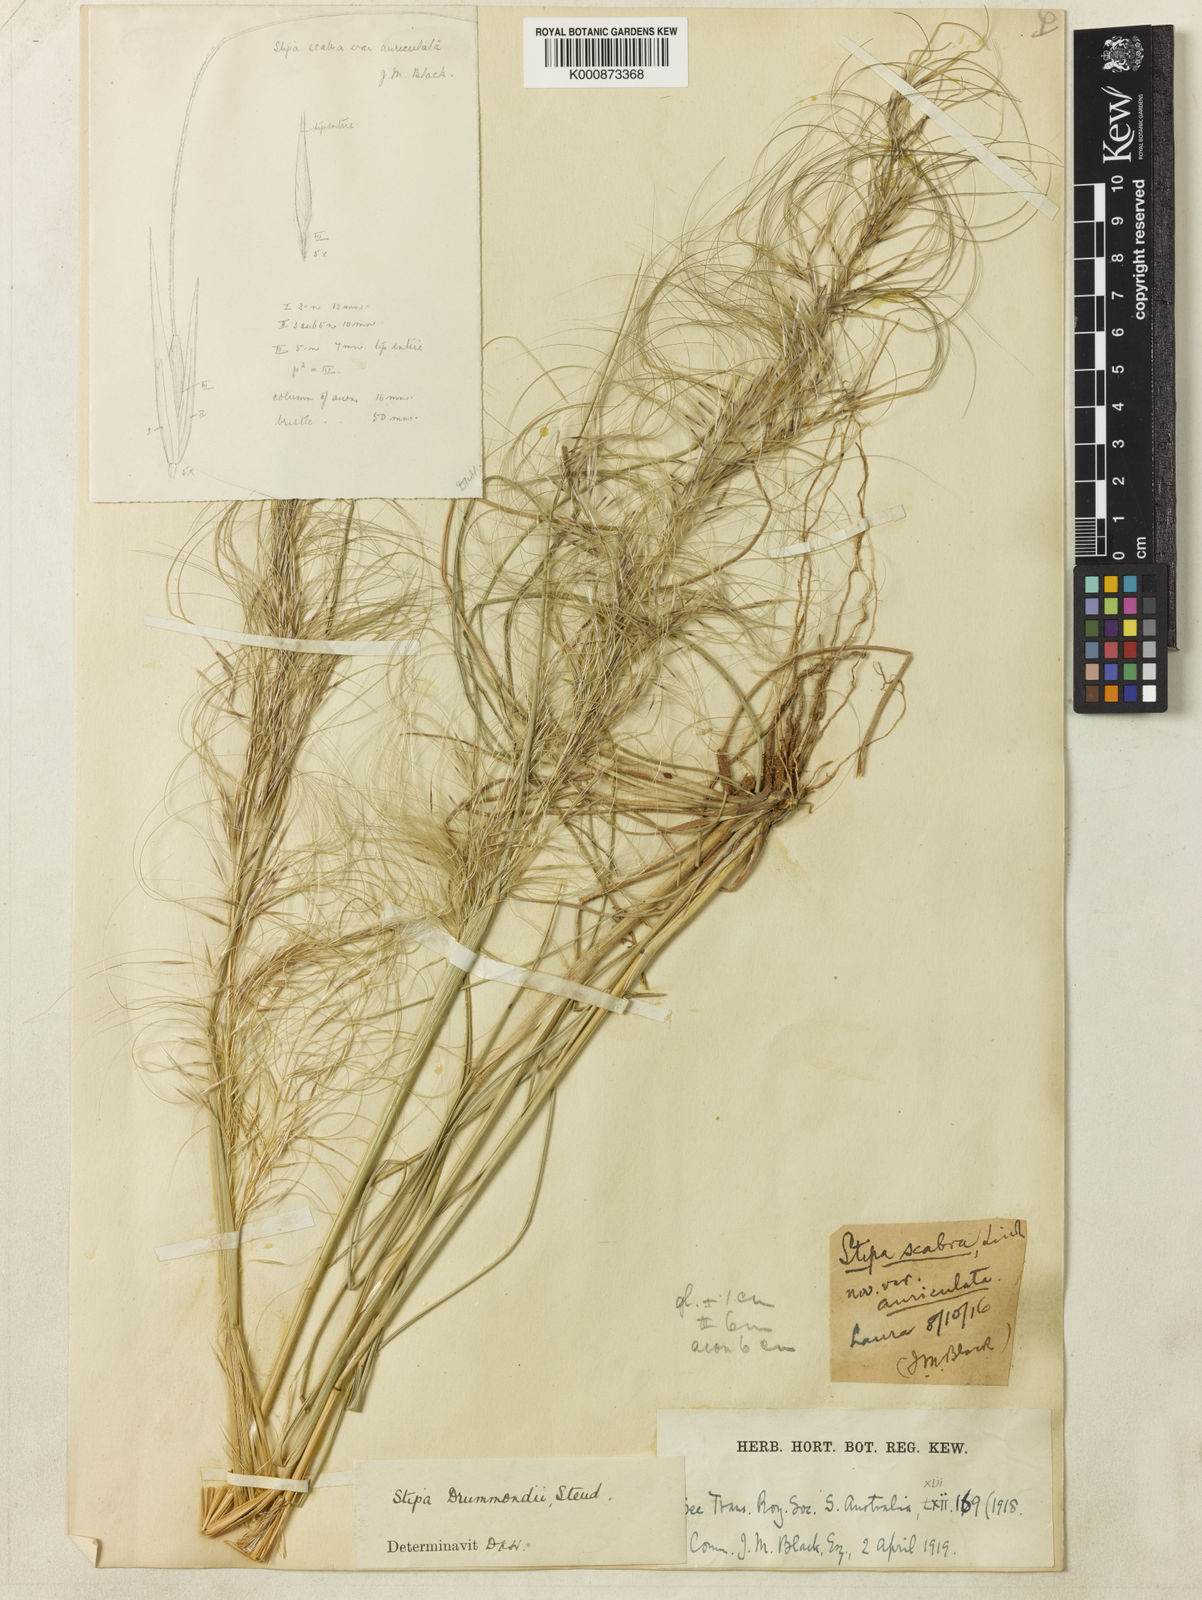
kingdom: Plantae
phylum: Tracheophyta
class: Liliopsida
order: Poales
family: Poaceae
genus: Austrostipa
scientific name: Austrostipa drummondii
